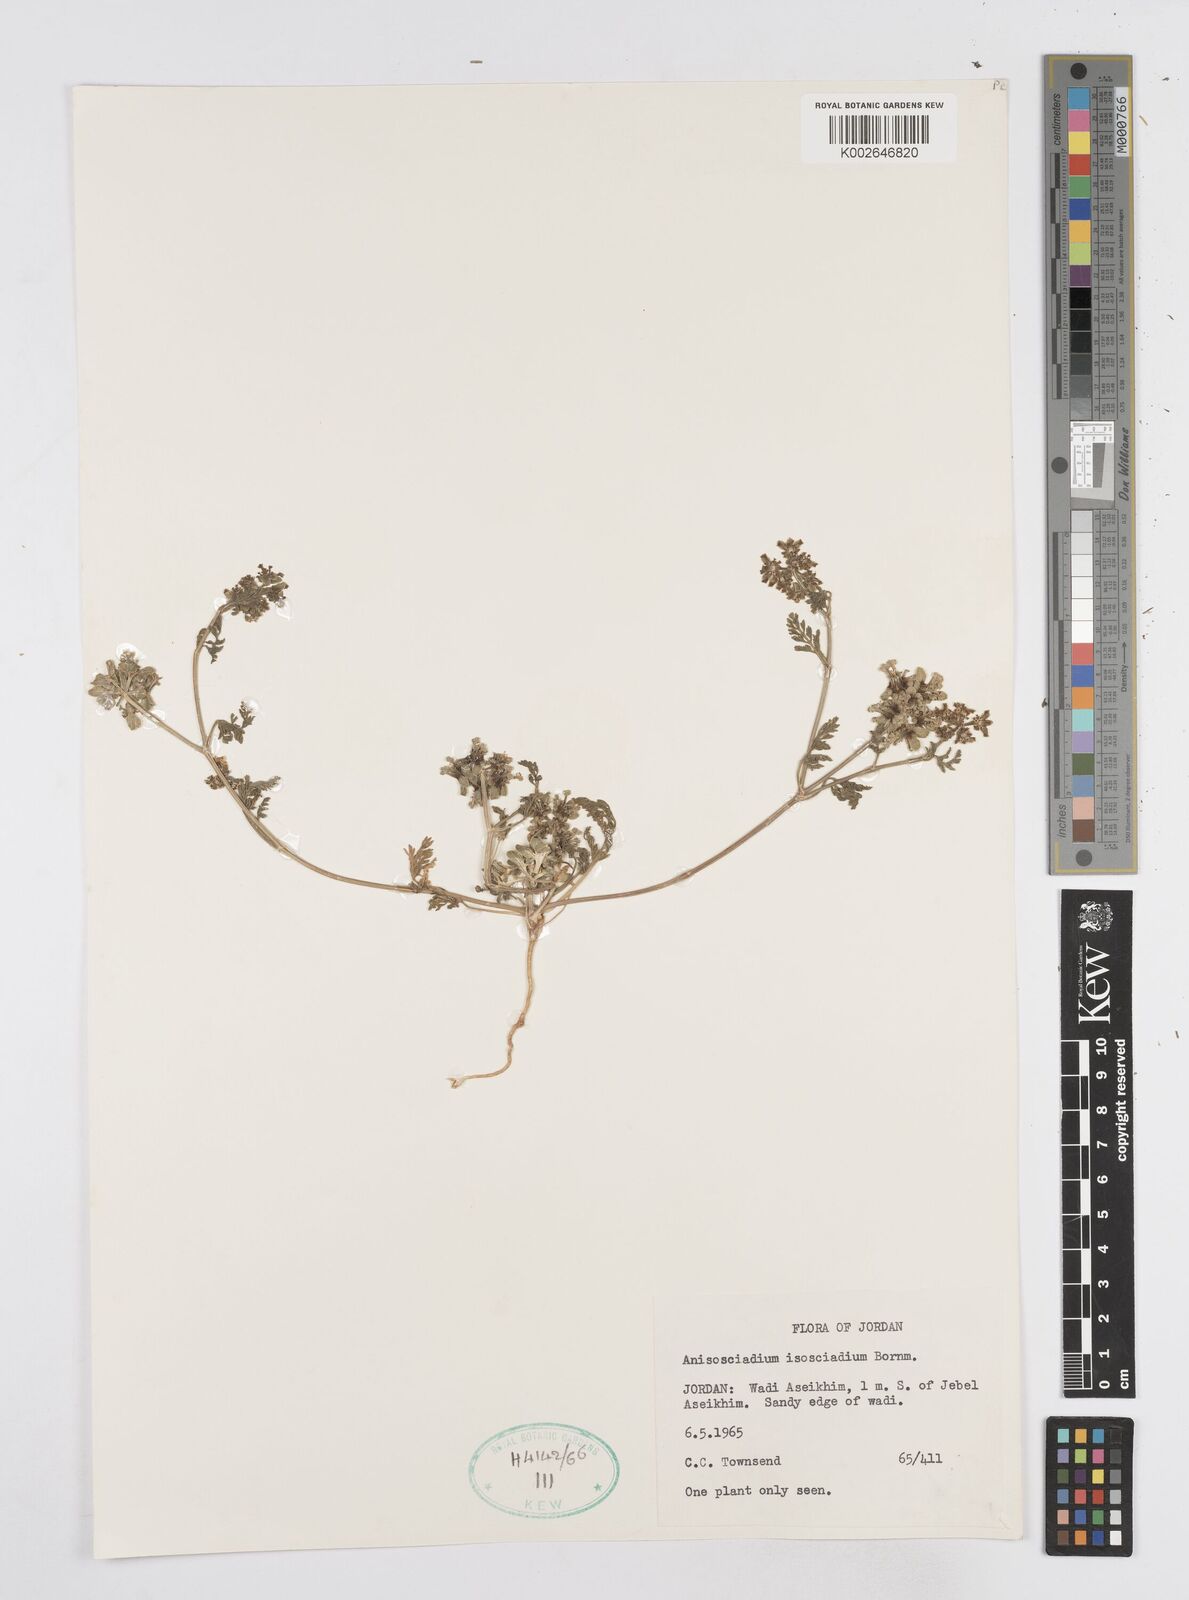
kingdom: Plantae
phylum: Tracheophyta
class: Magnoliopsida
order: Apiales
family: Apiaceae
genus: Anisosciadium
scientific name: Anisosciadium isosciadium
